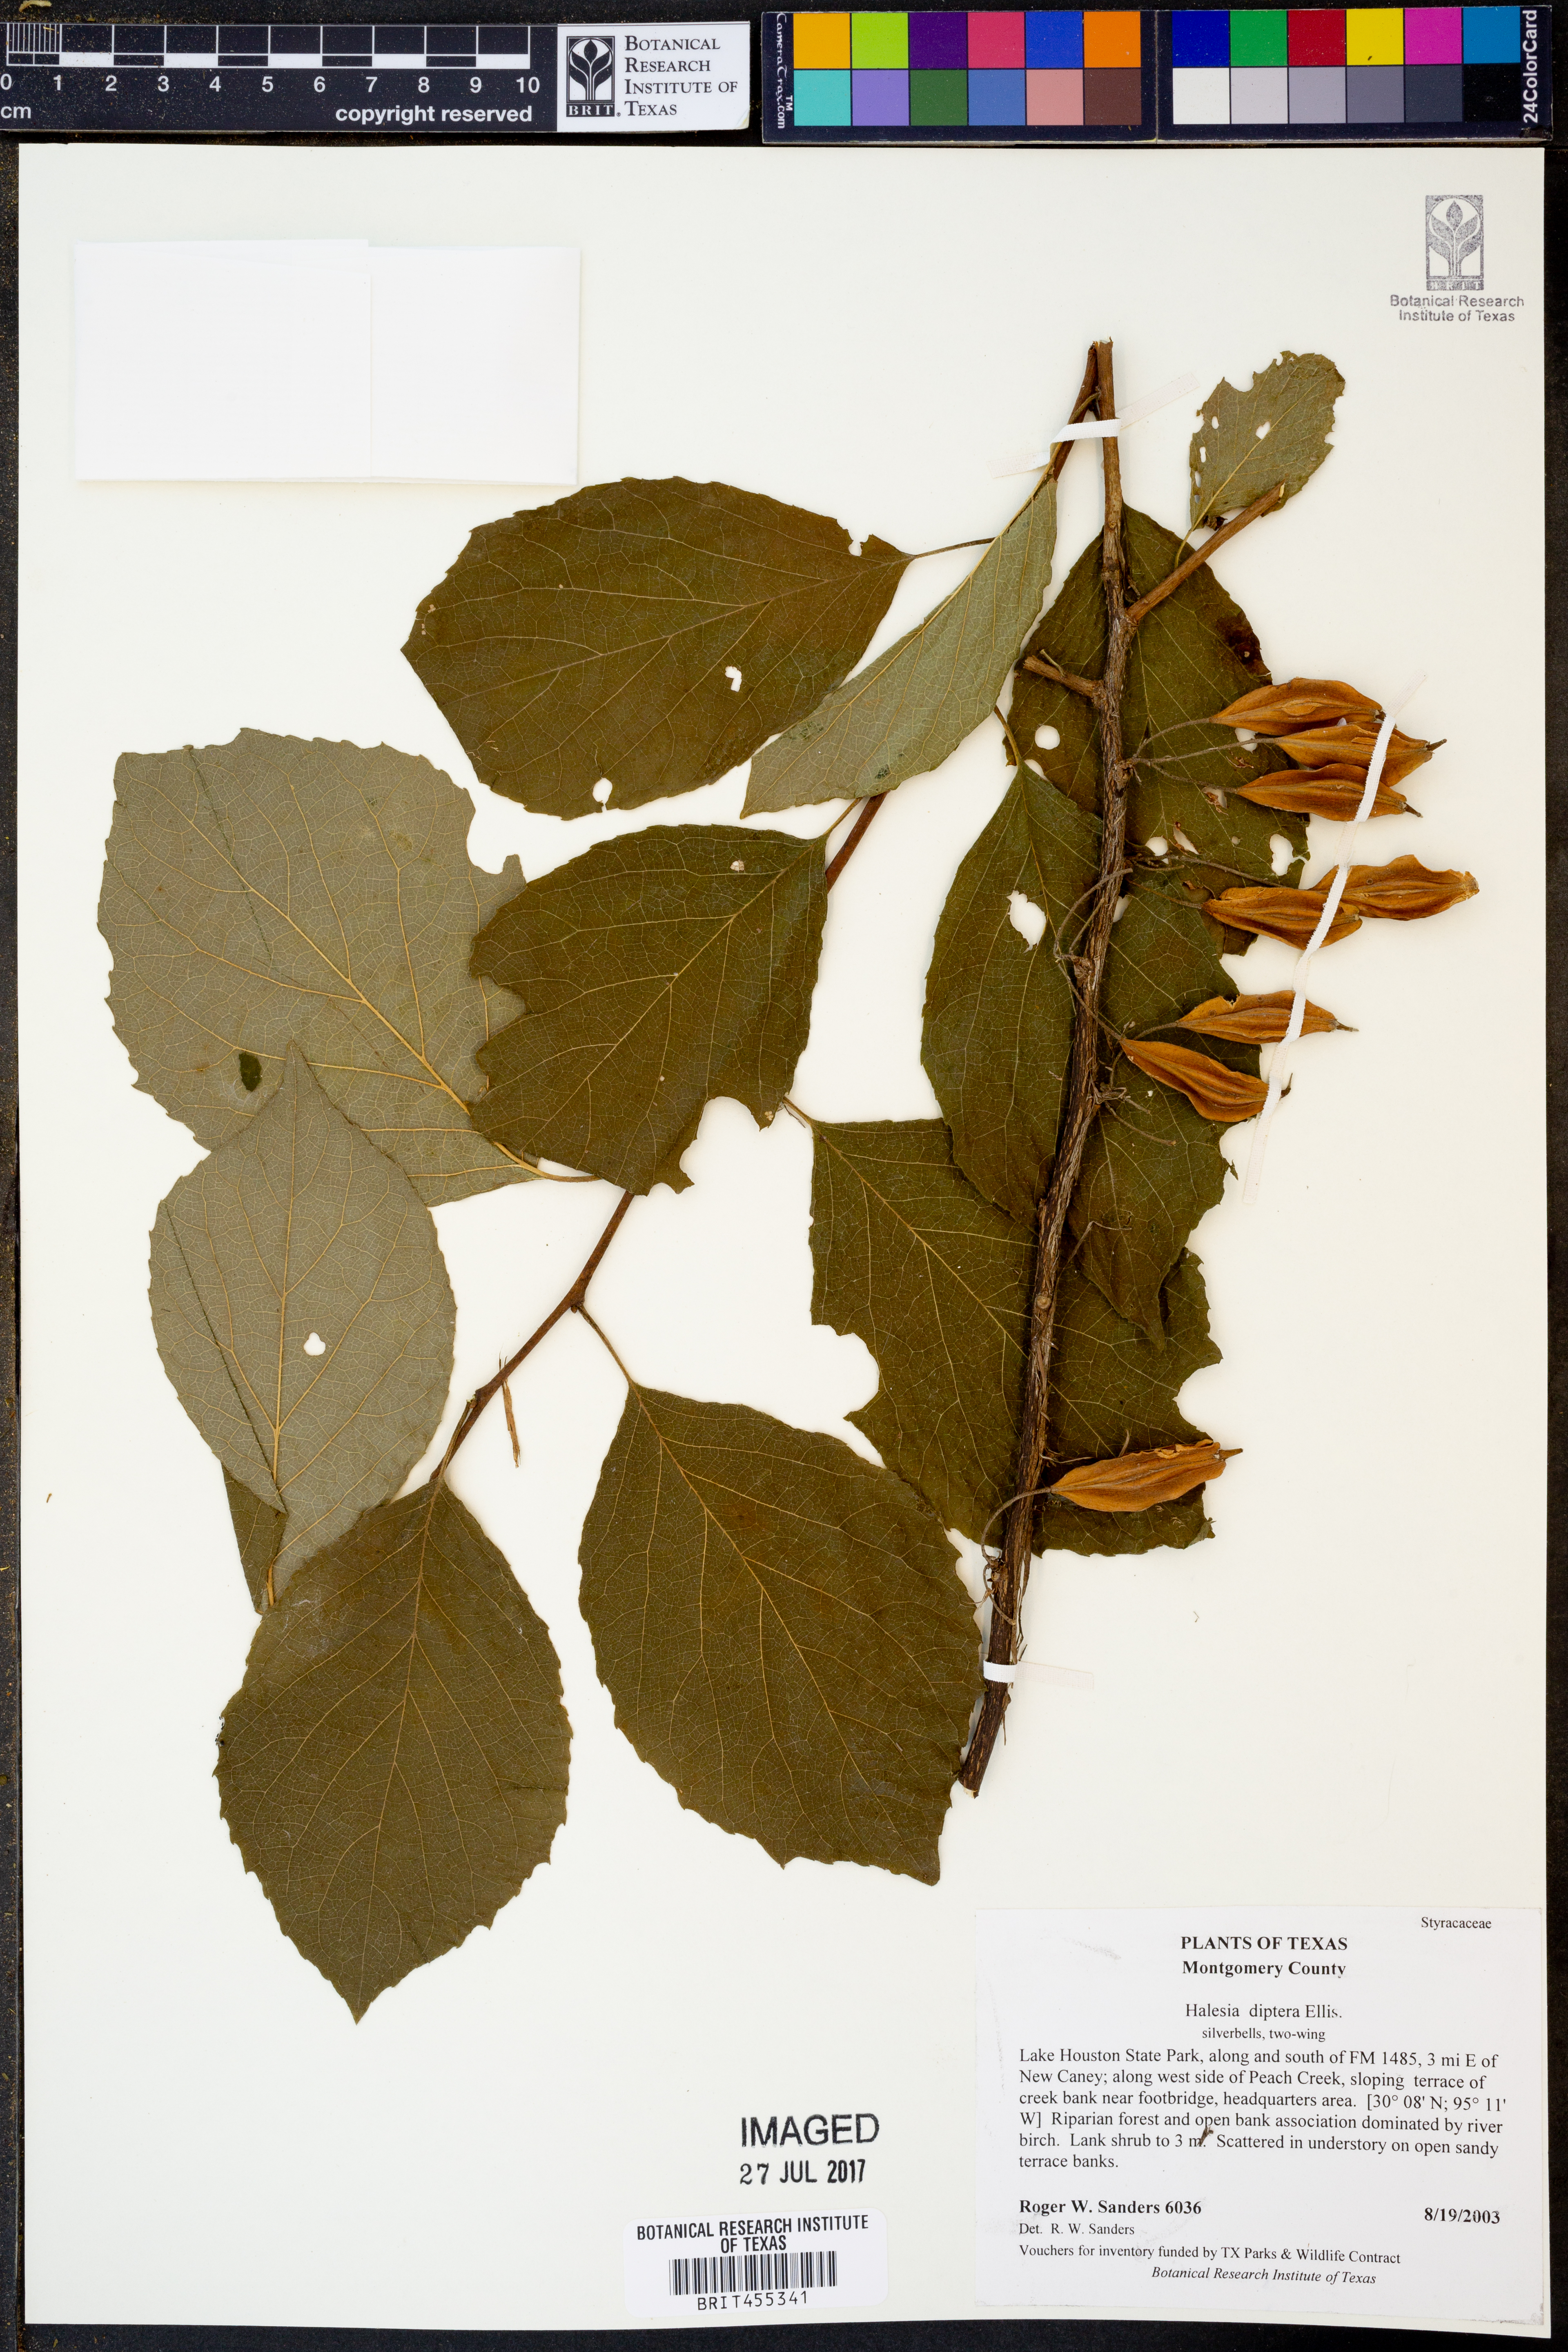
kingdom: Plantae
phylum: Tracheophyta
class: Magnoliopsida
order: Ericales
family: Styracaceae
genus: Halesia
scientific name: Halesia diptera
